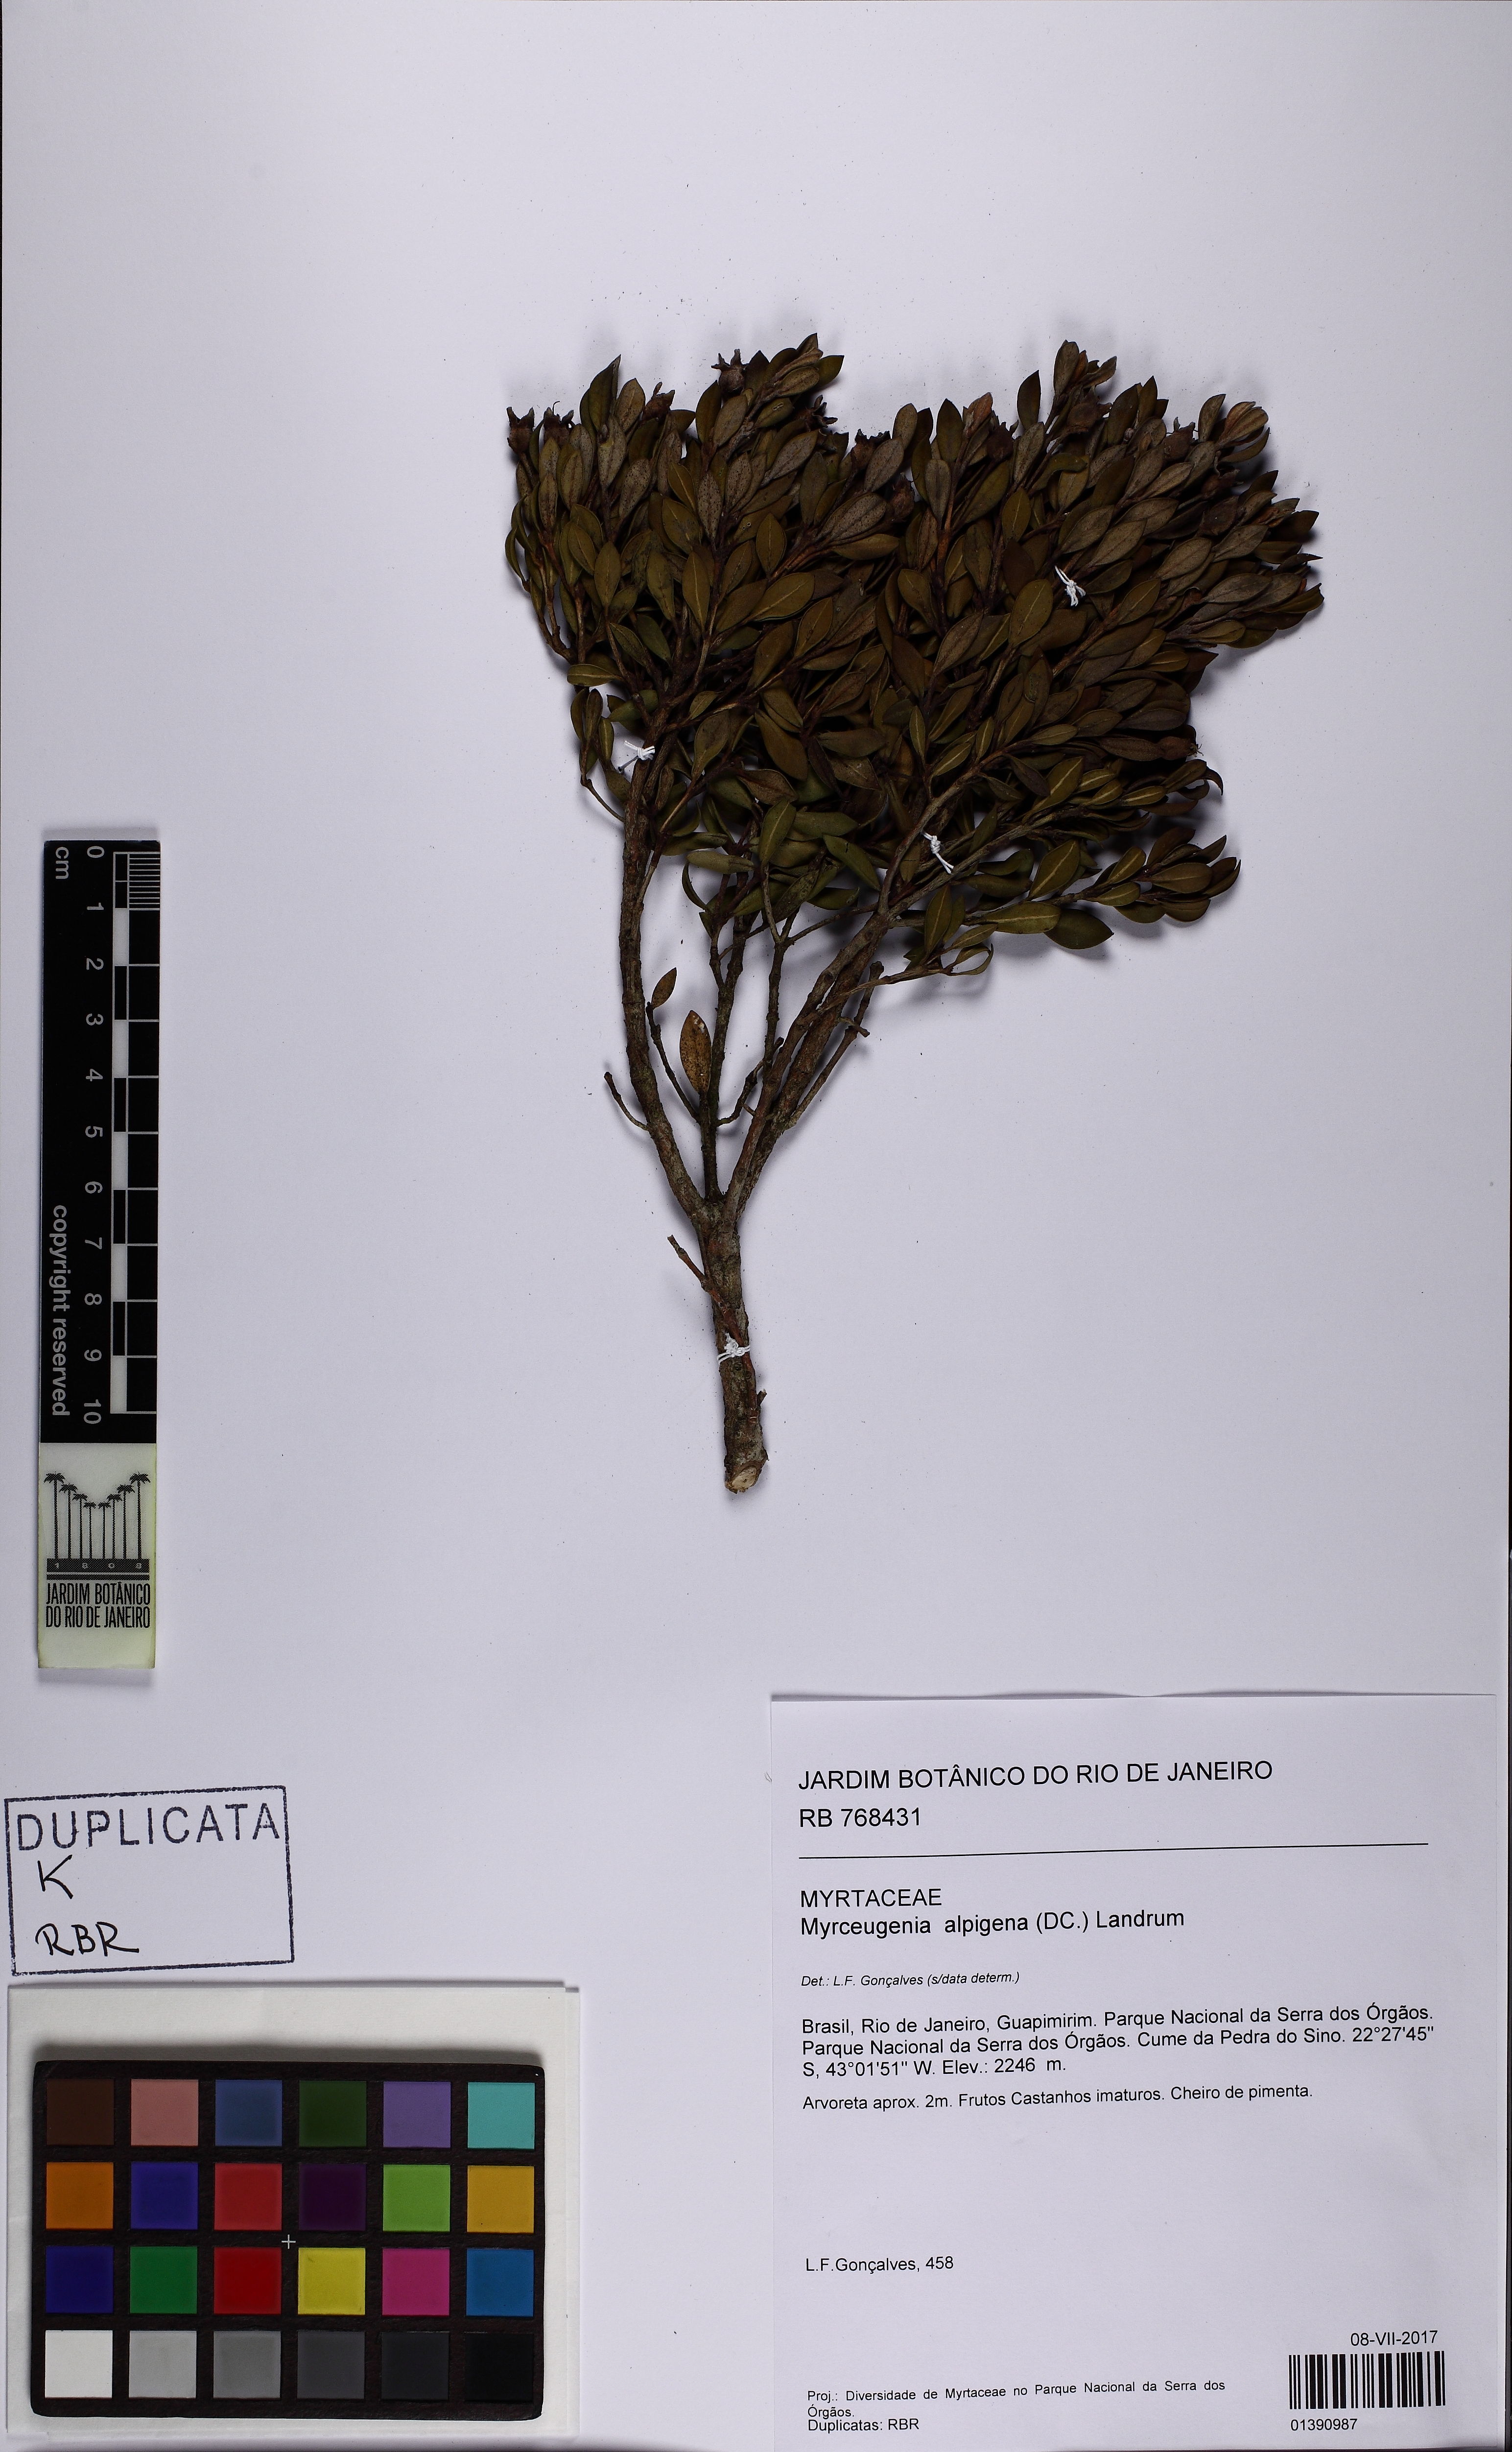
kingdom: Plantae
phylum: Tracheophyta
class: Magnoliopsida
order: Myrtales
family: Myrtaceae
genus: Myrceugenia
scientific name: Myrceugenia alpigena
